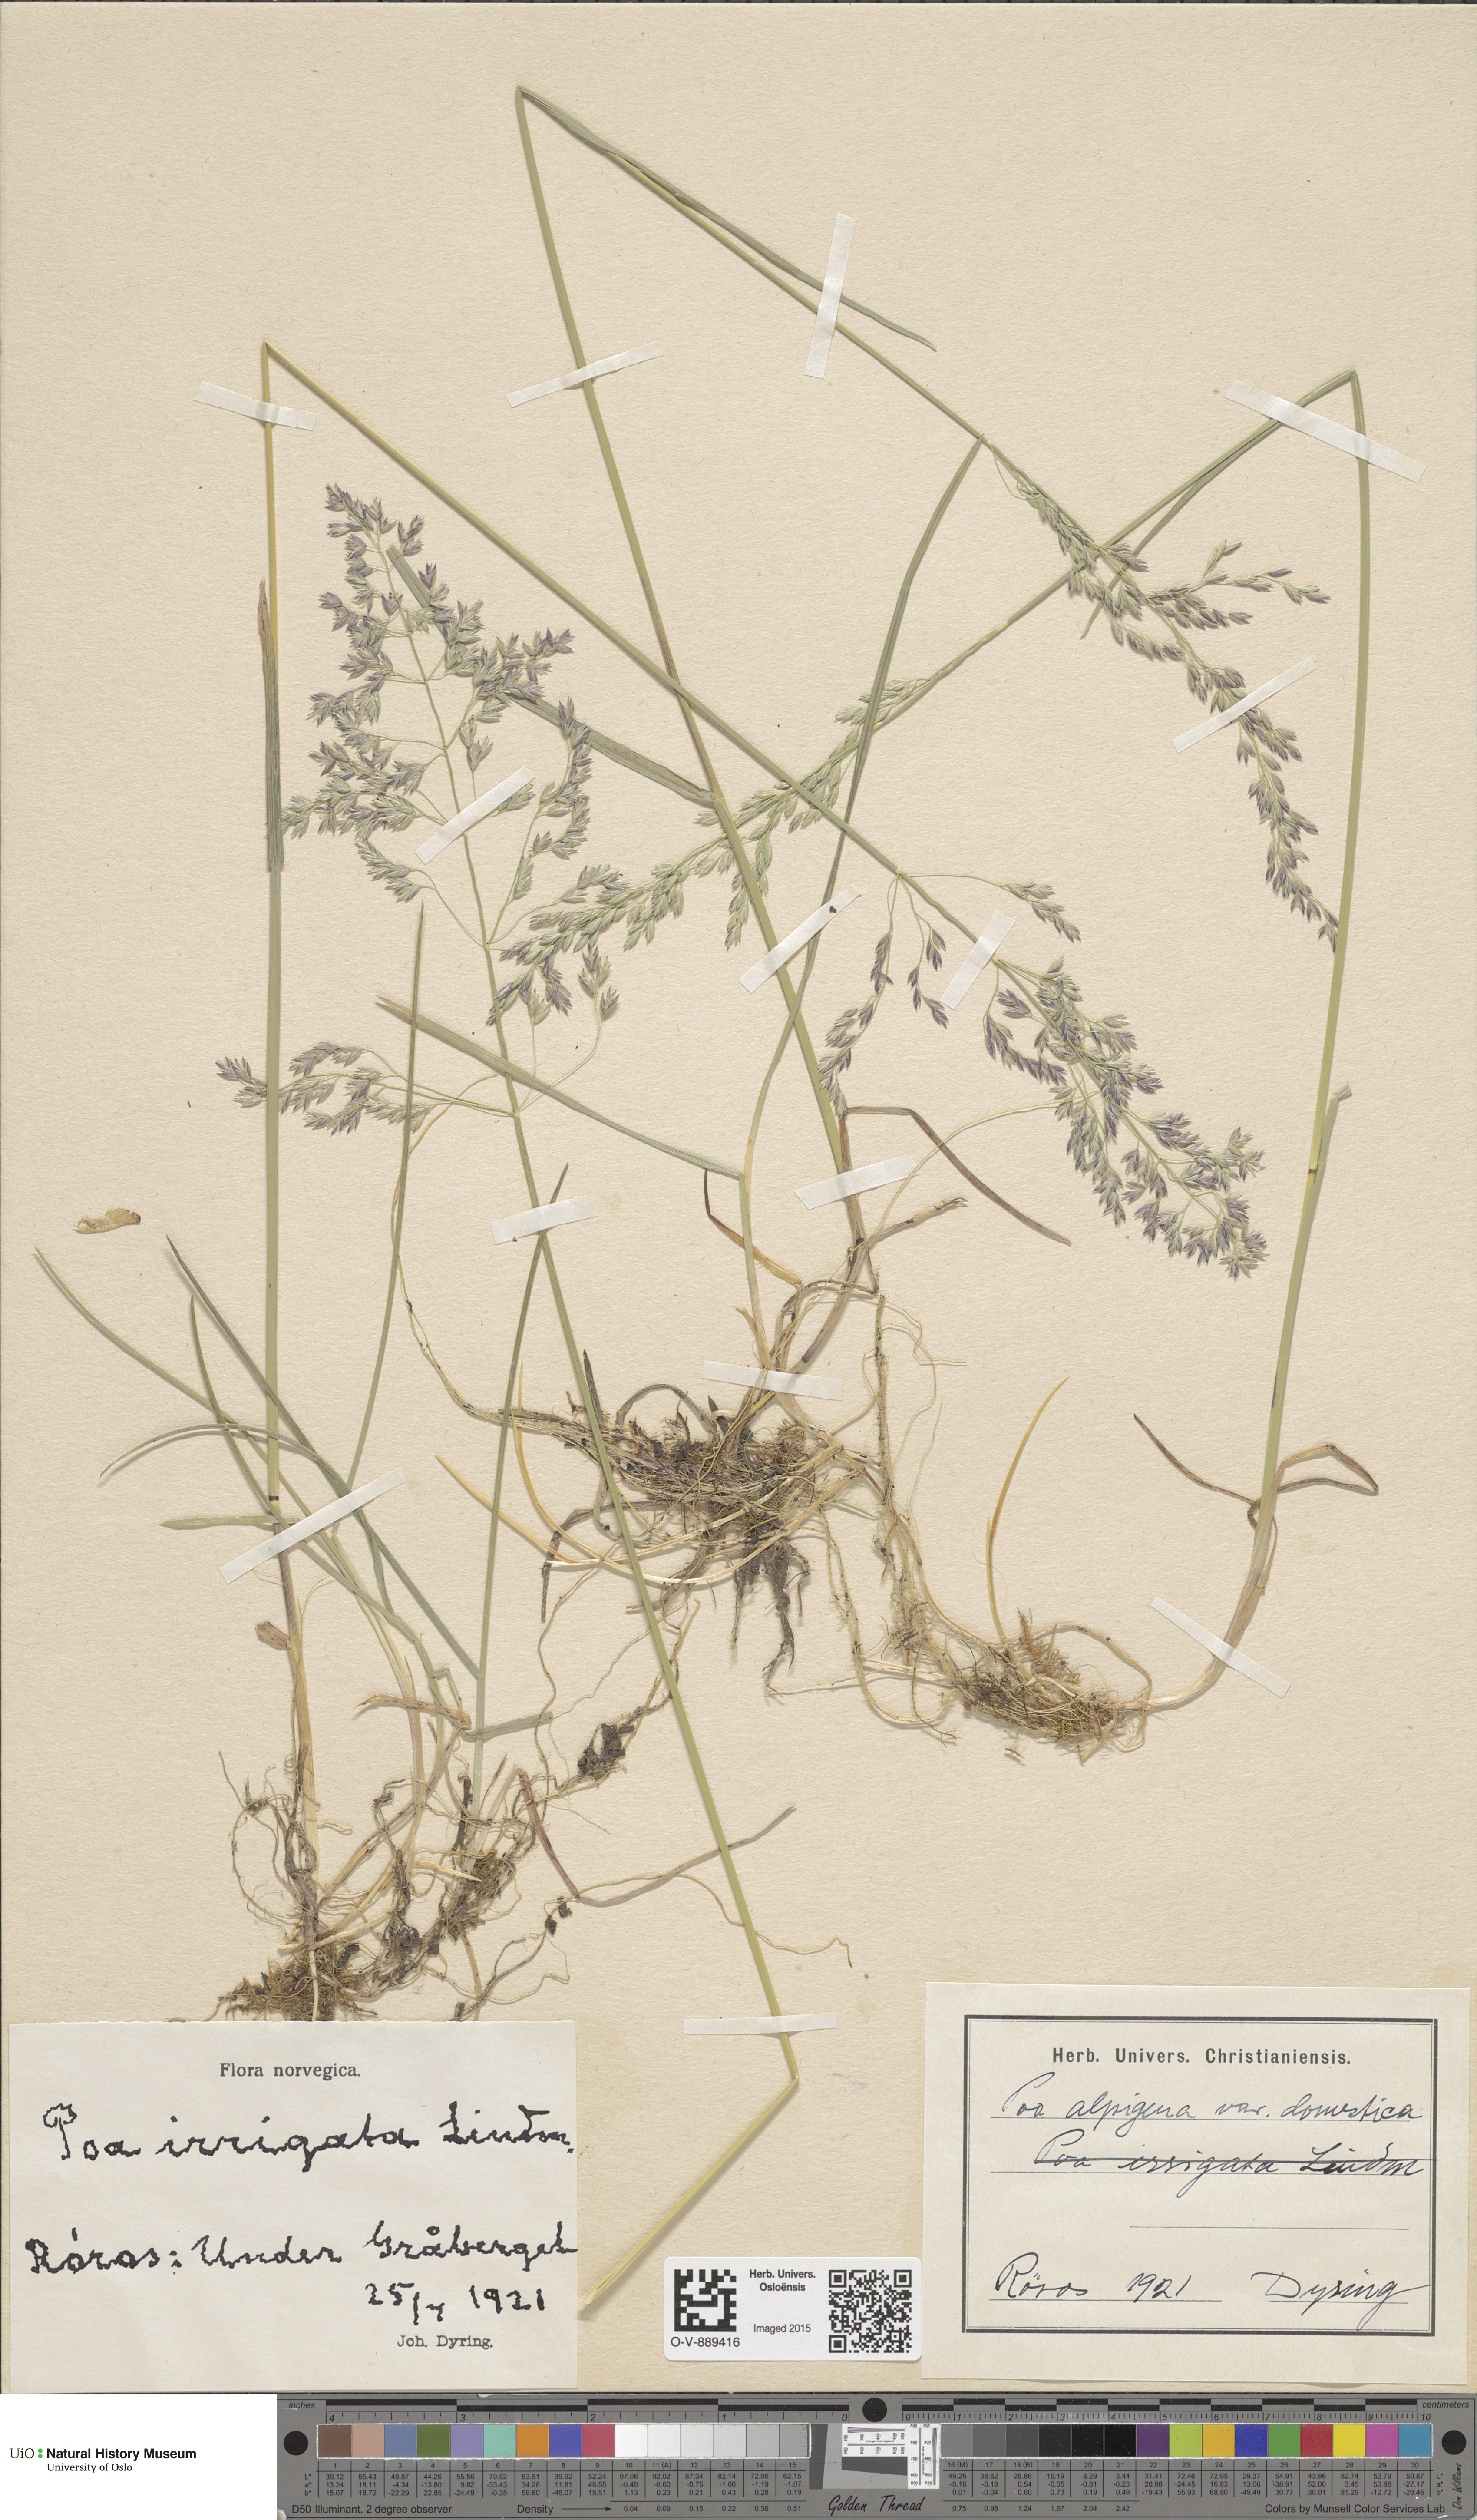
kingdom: Plantae
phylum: Tracheophyta
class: Liliopsida
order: Poales
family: Poaceae
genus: Poa
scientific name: Poa pratensis
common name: Kentucky bluegrass
